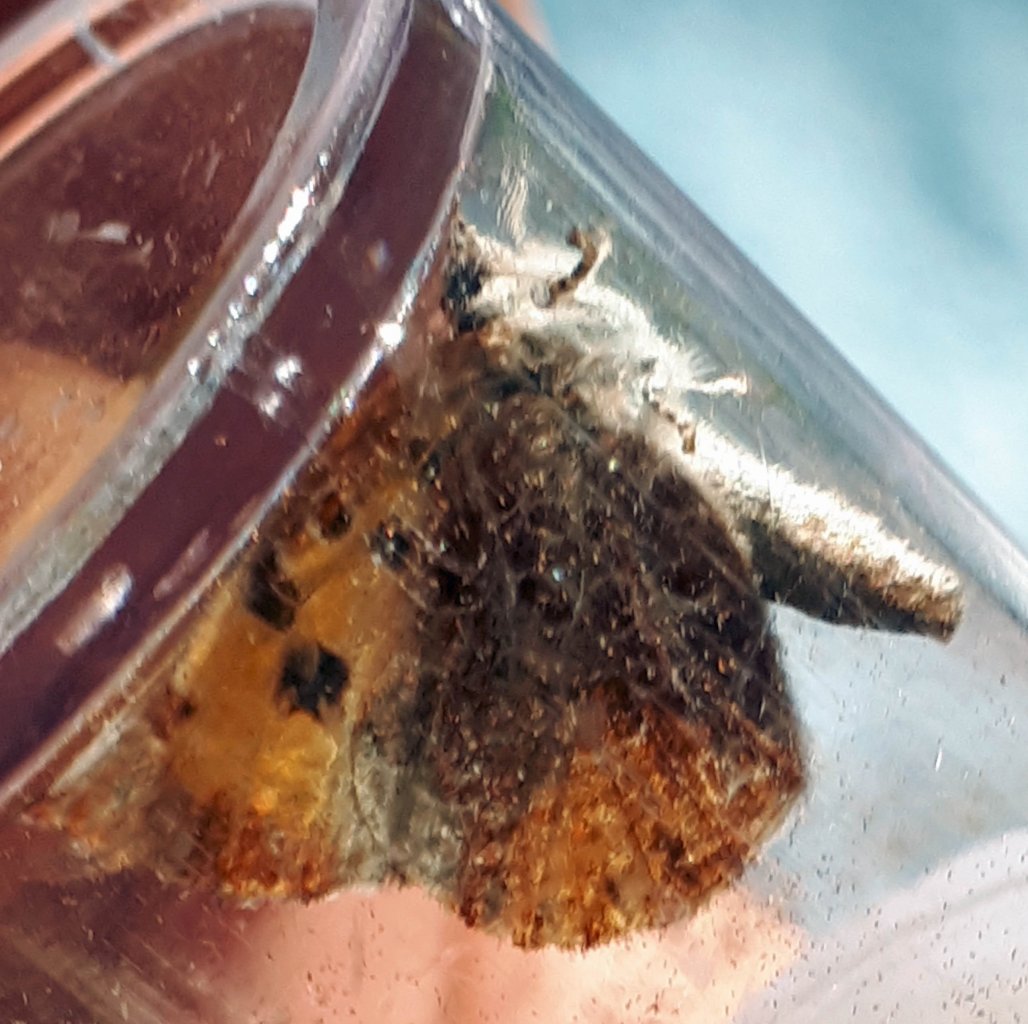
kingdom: Animalia
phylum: Arthropoda
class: Insecta
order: Lepidoptera
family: Lycaenidae
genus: Feniseca
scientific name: Feniseca tarquinius
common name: Harvester
